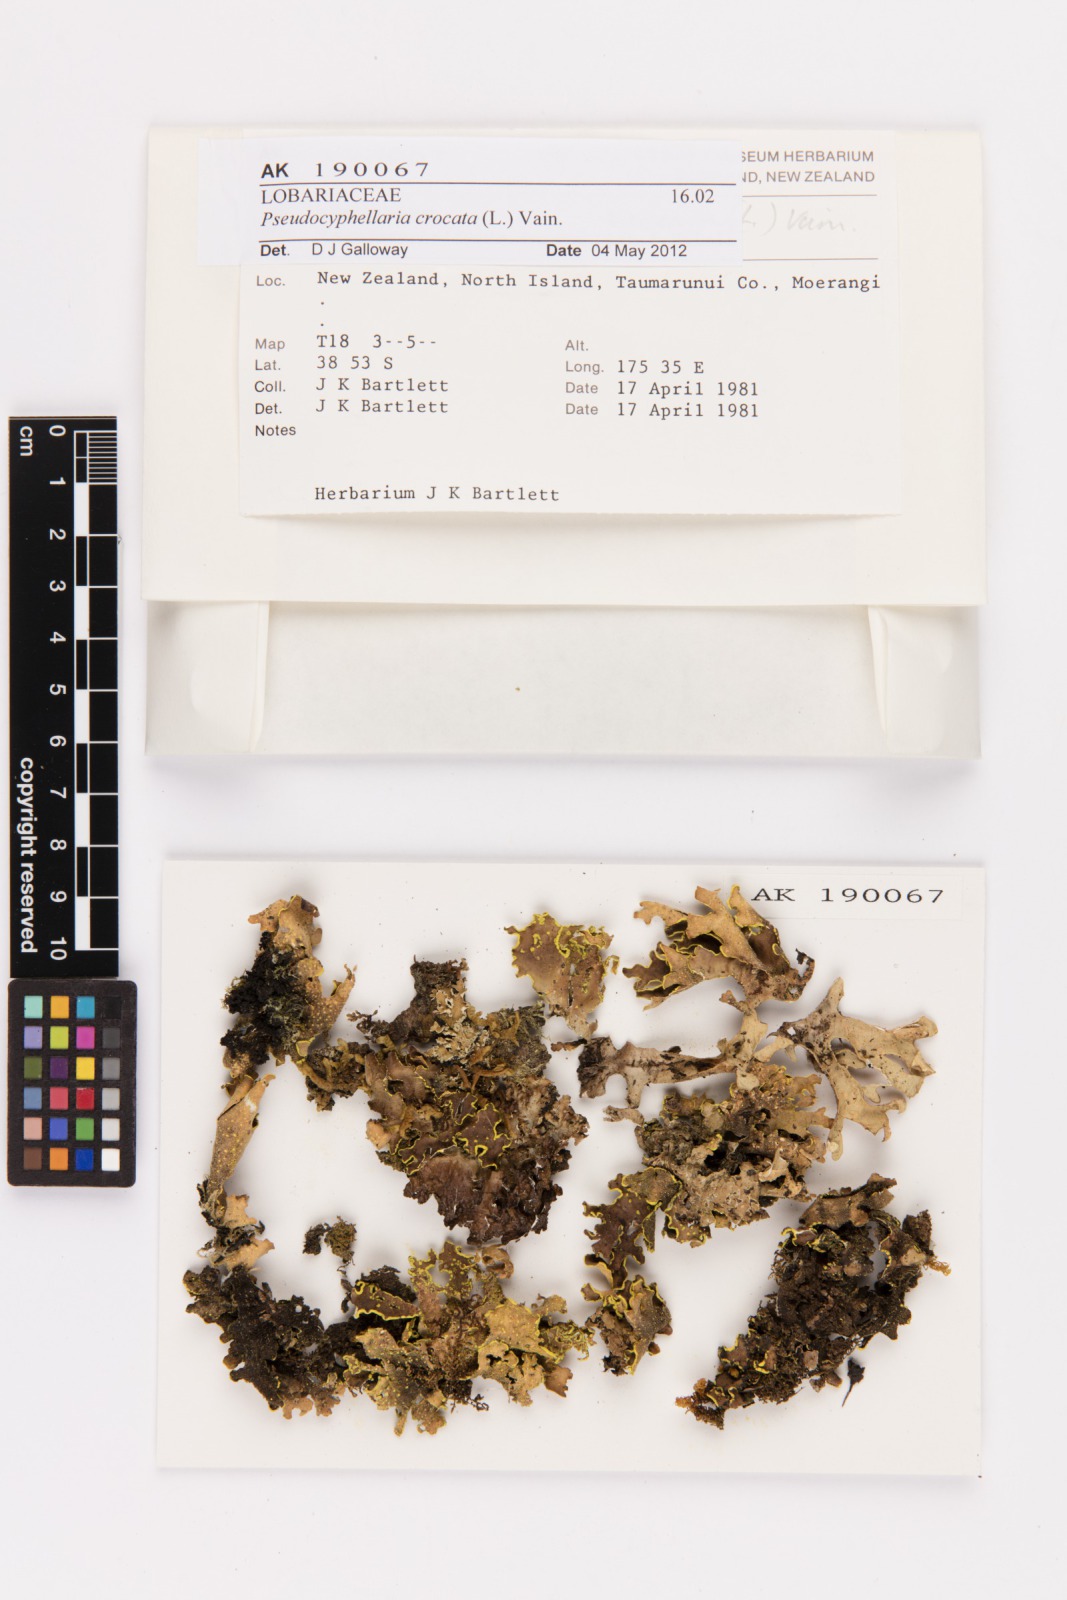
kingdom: Fungi
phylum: Ascomycota
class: Lecanoromycetes
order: Peltigerales
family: Lobariaceae
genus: Pseudocyphellaria
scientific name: Pseudocyphellaria crocata
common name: Golden specklebelly
